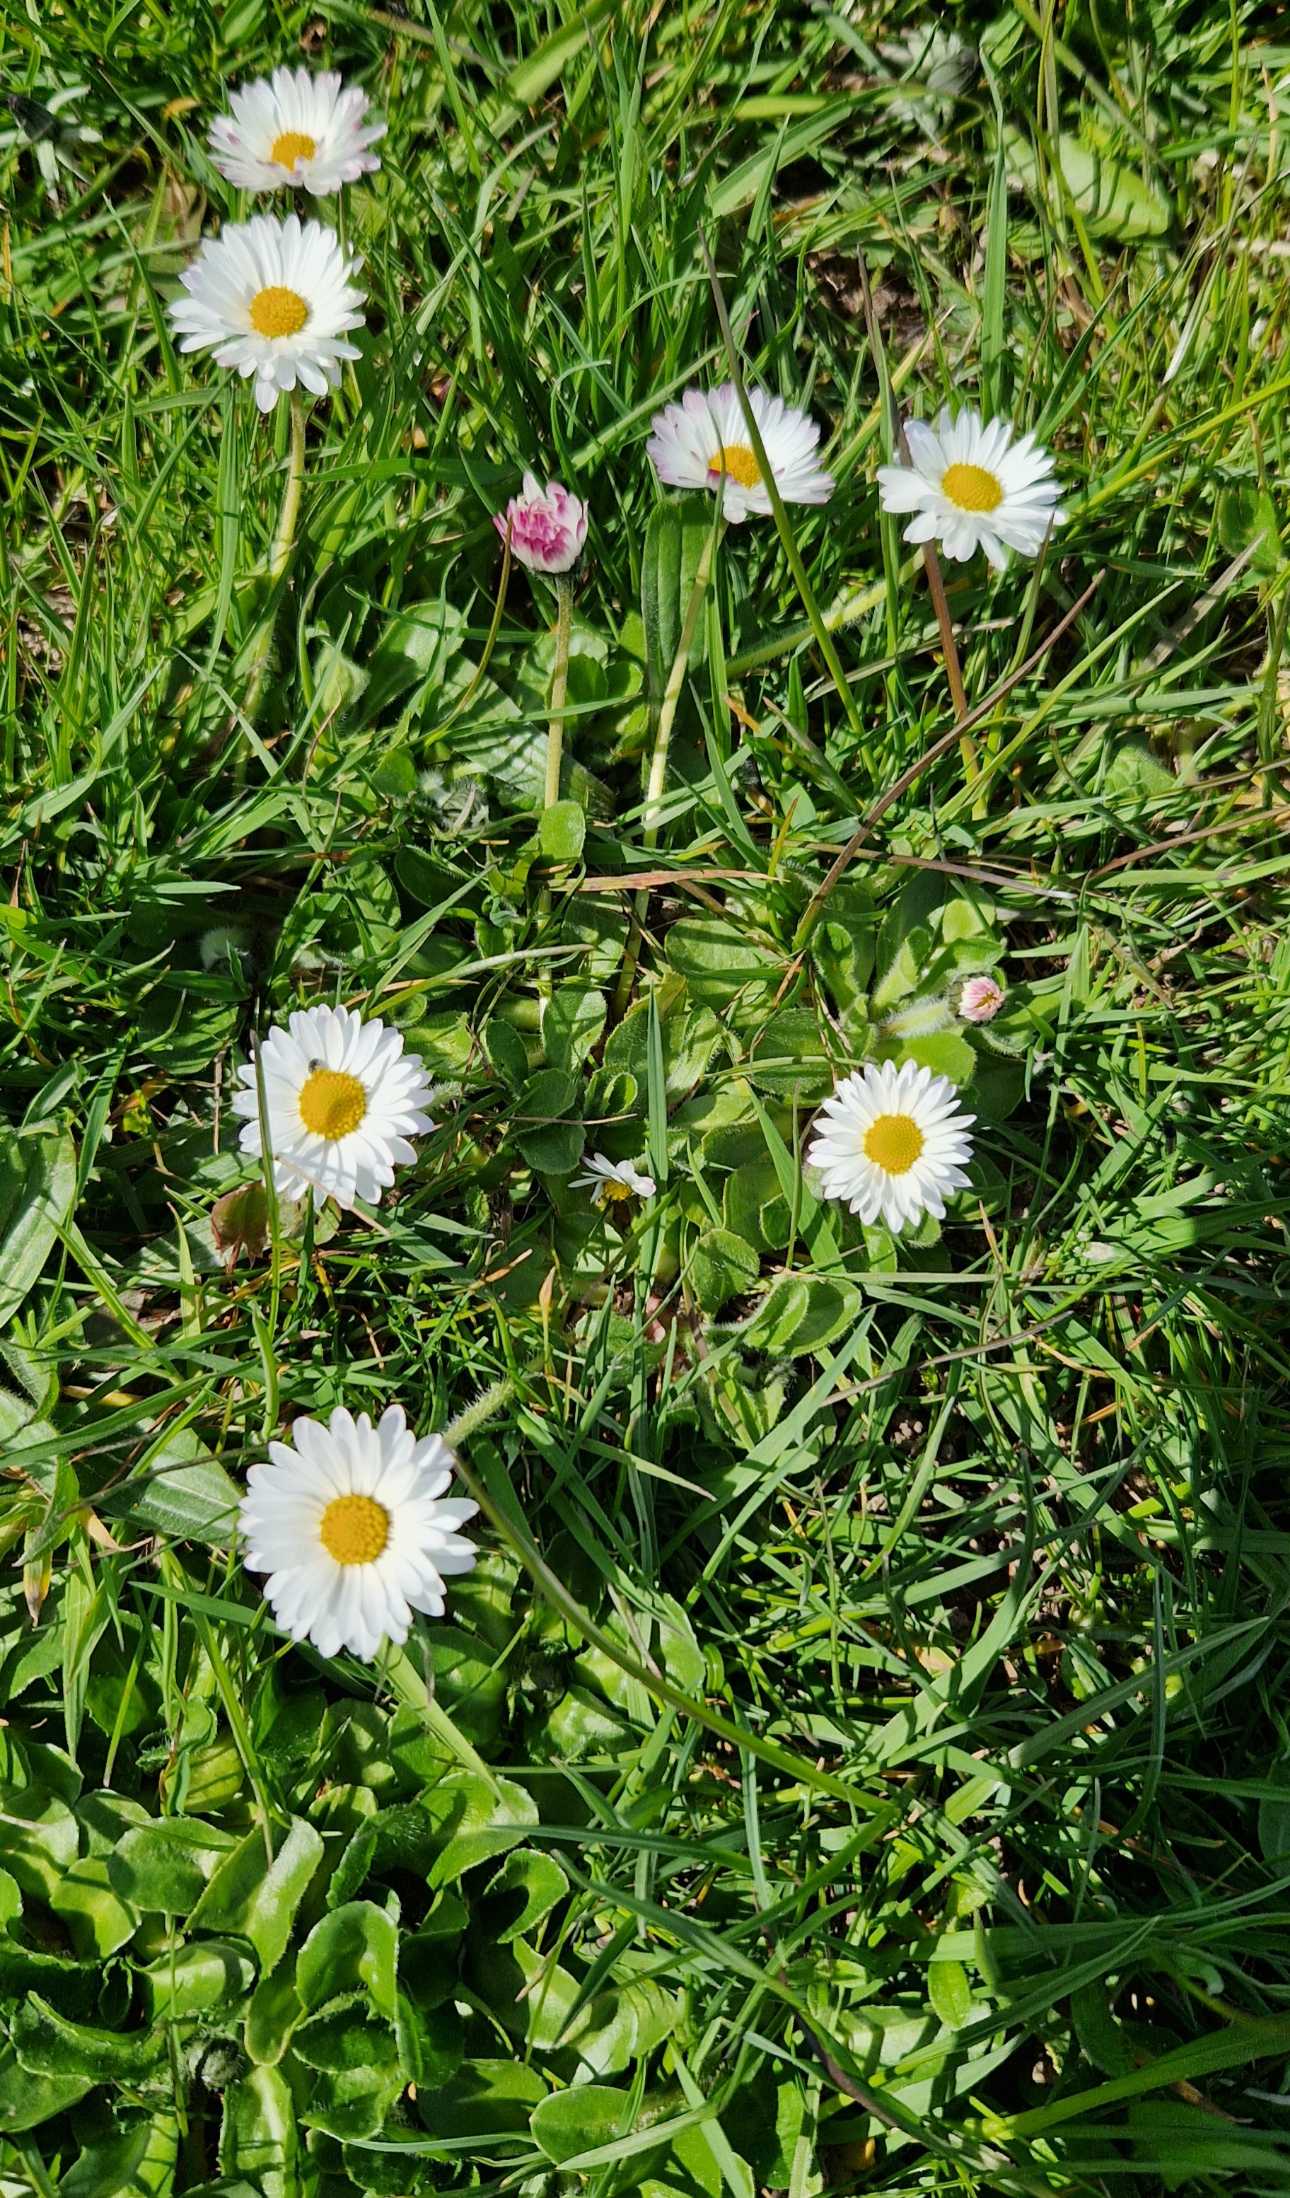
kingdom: Plantae
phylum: Tracheophyta
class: Magnoliopsida
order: Asterales
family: Asteraceae
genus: Bellis
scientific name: Bellis perennis
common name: Tusindfryd
